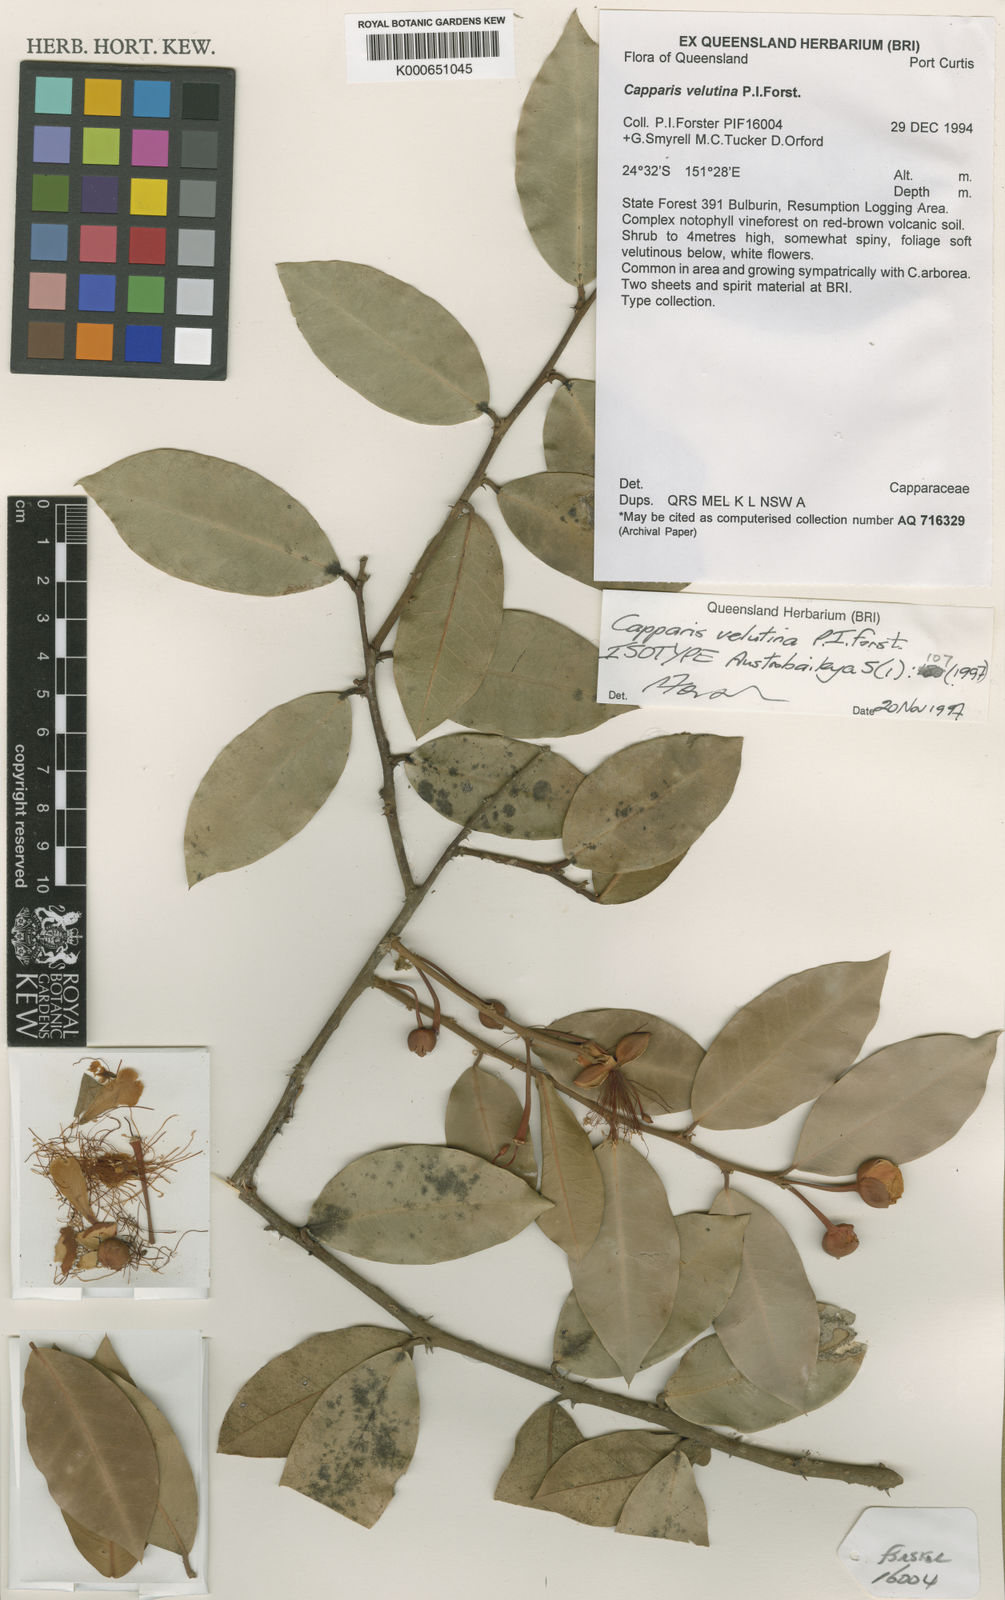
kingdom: Plantae
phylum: Tracheophyta
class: Magnoliopsida
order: Brassicales
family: Capparaceae
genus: Capparis
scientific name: Capparis velutina
